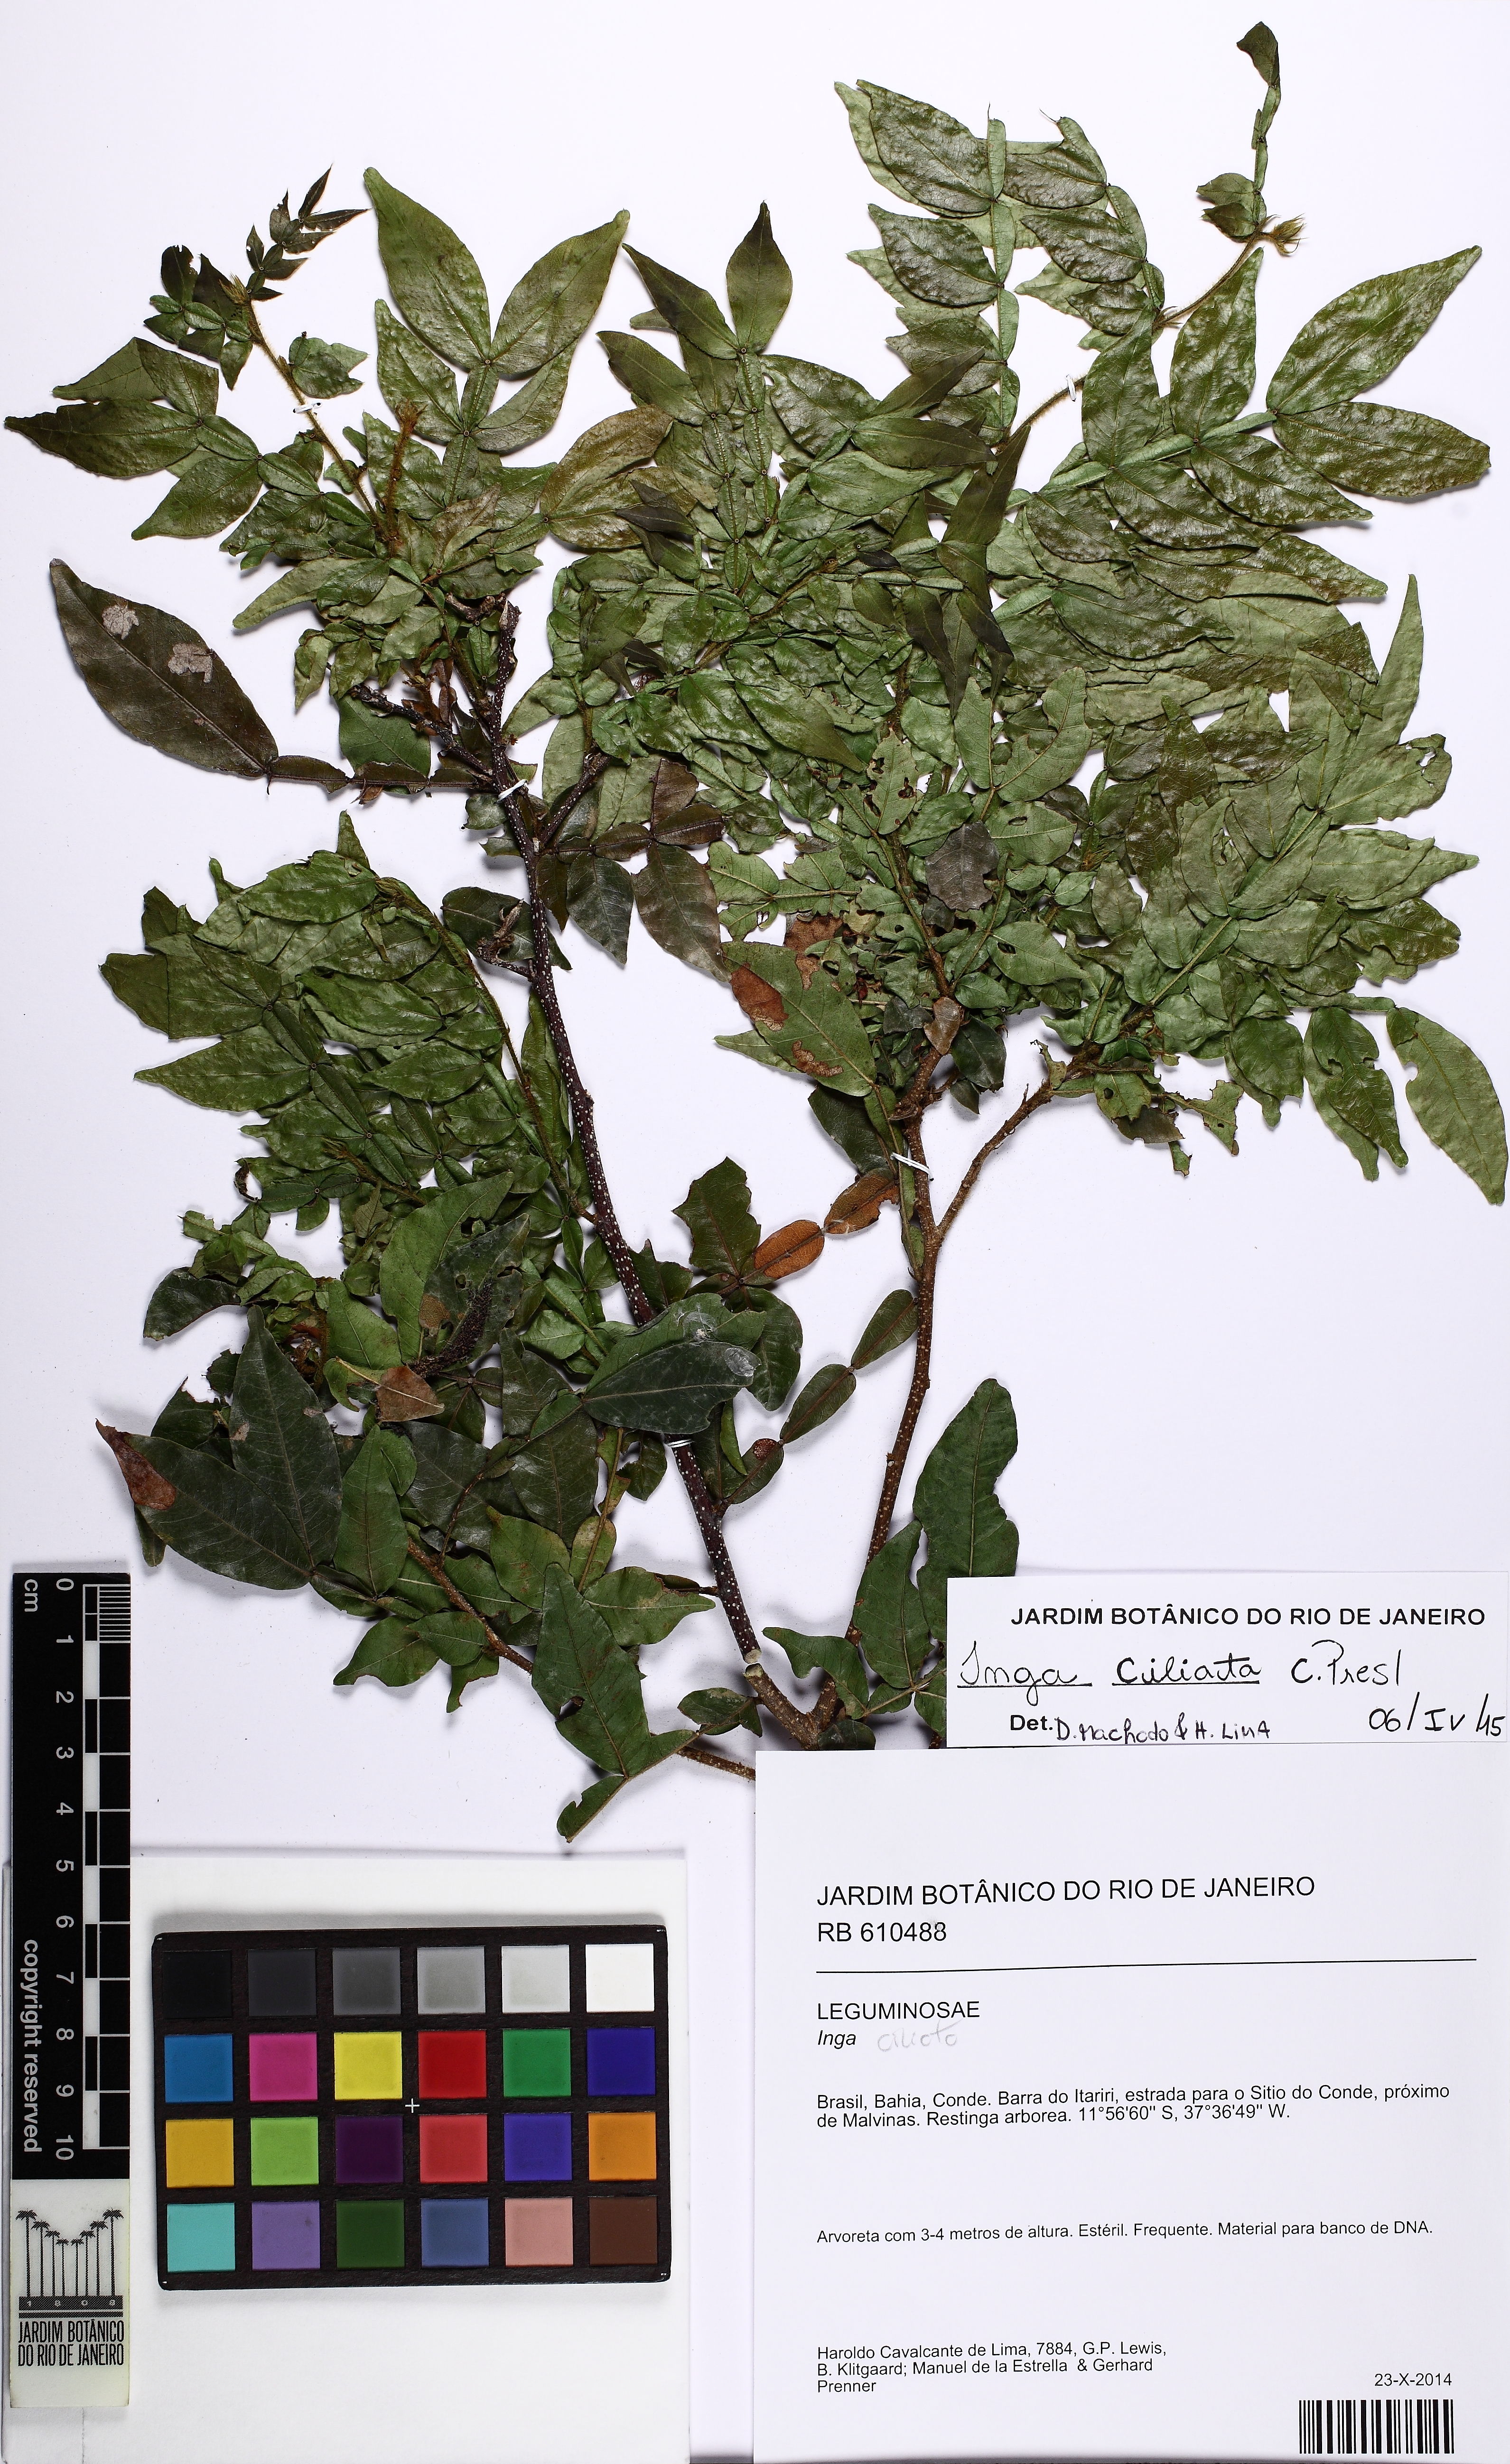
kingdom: Plantae
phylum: Tracheophyta
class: Magnoliopsida
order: Fabales
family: Fabaceae
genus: Inga
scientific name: Inga ciliata
